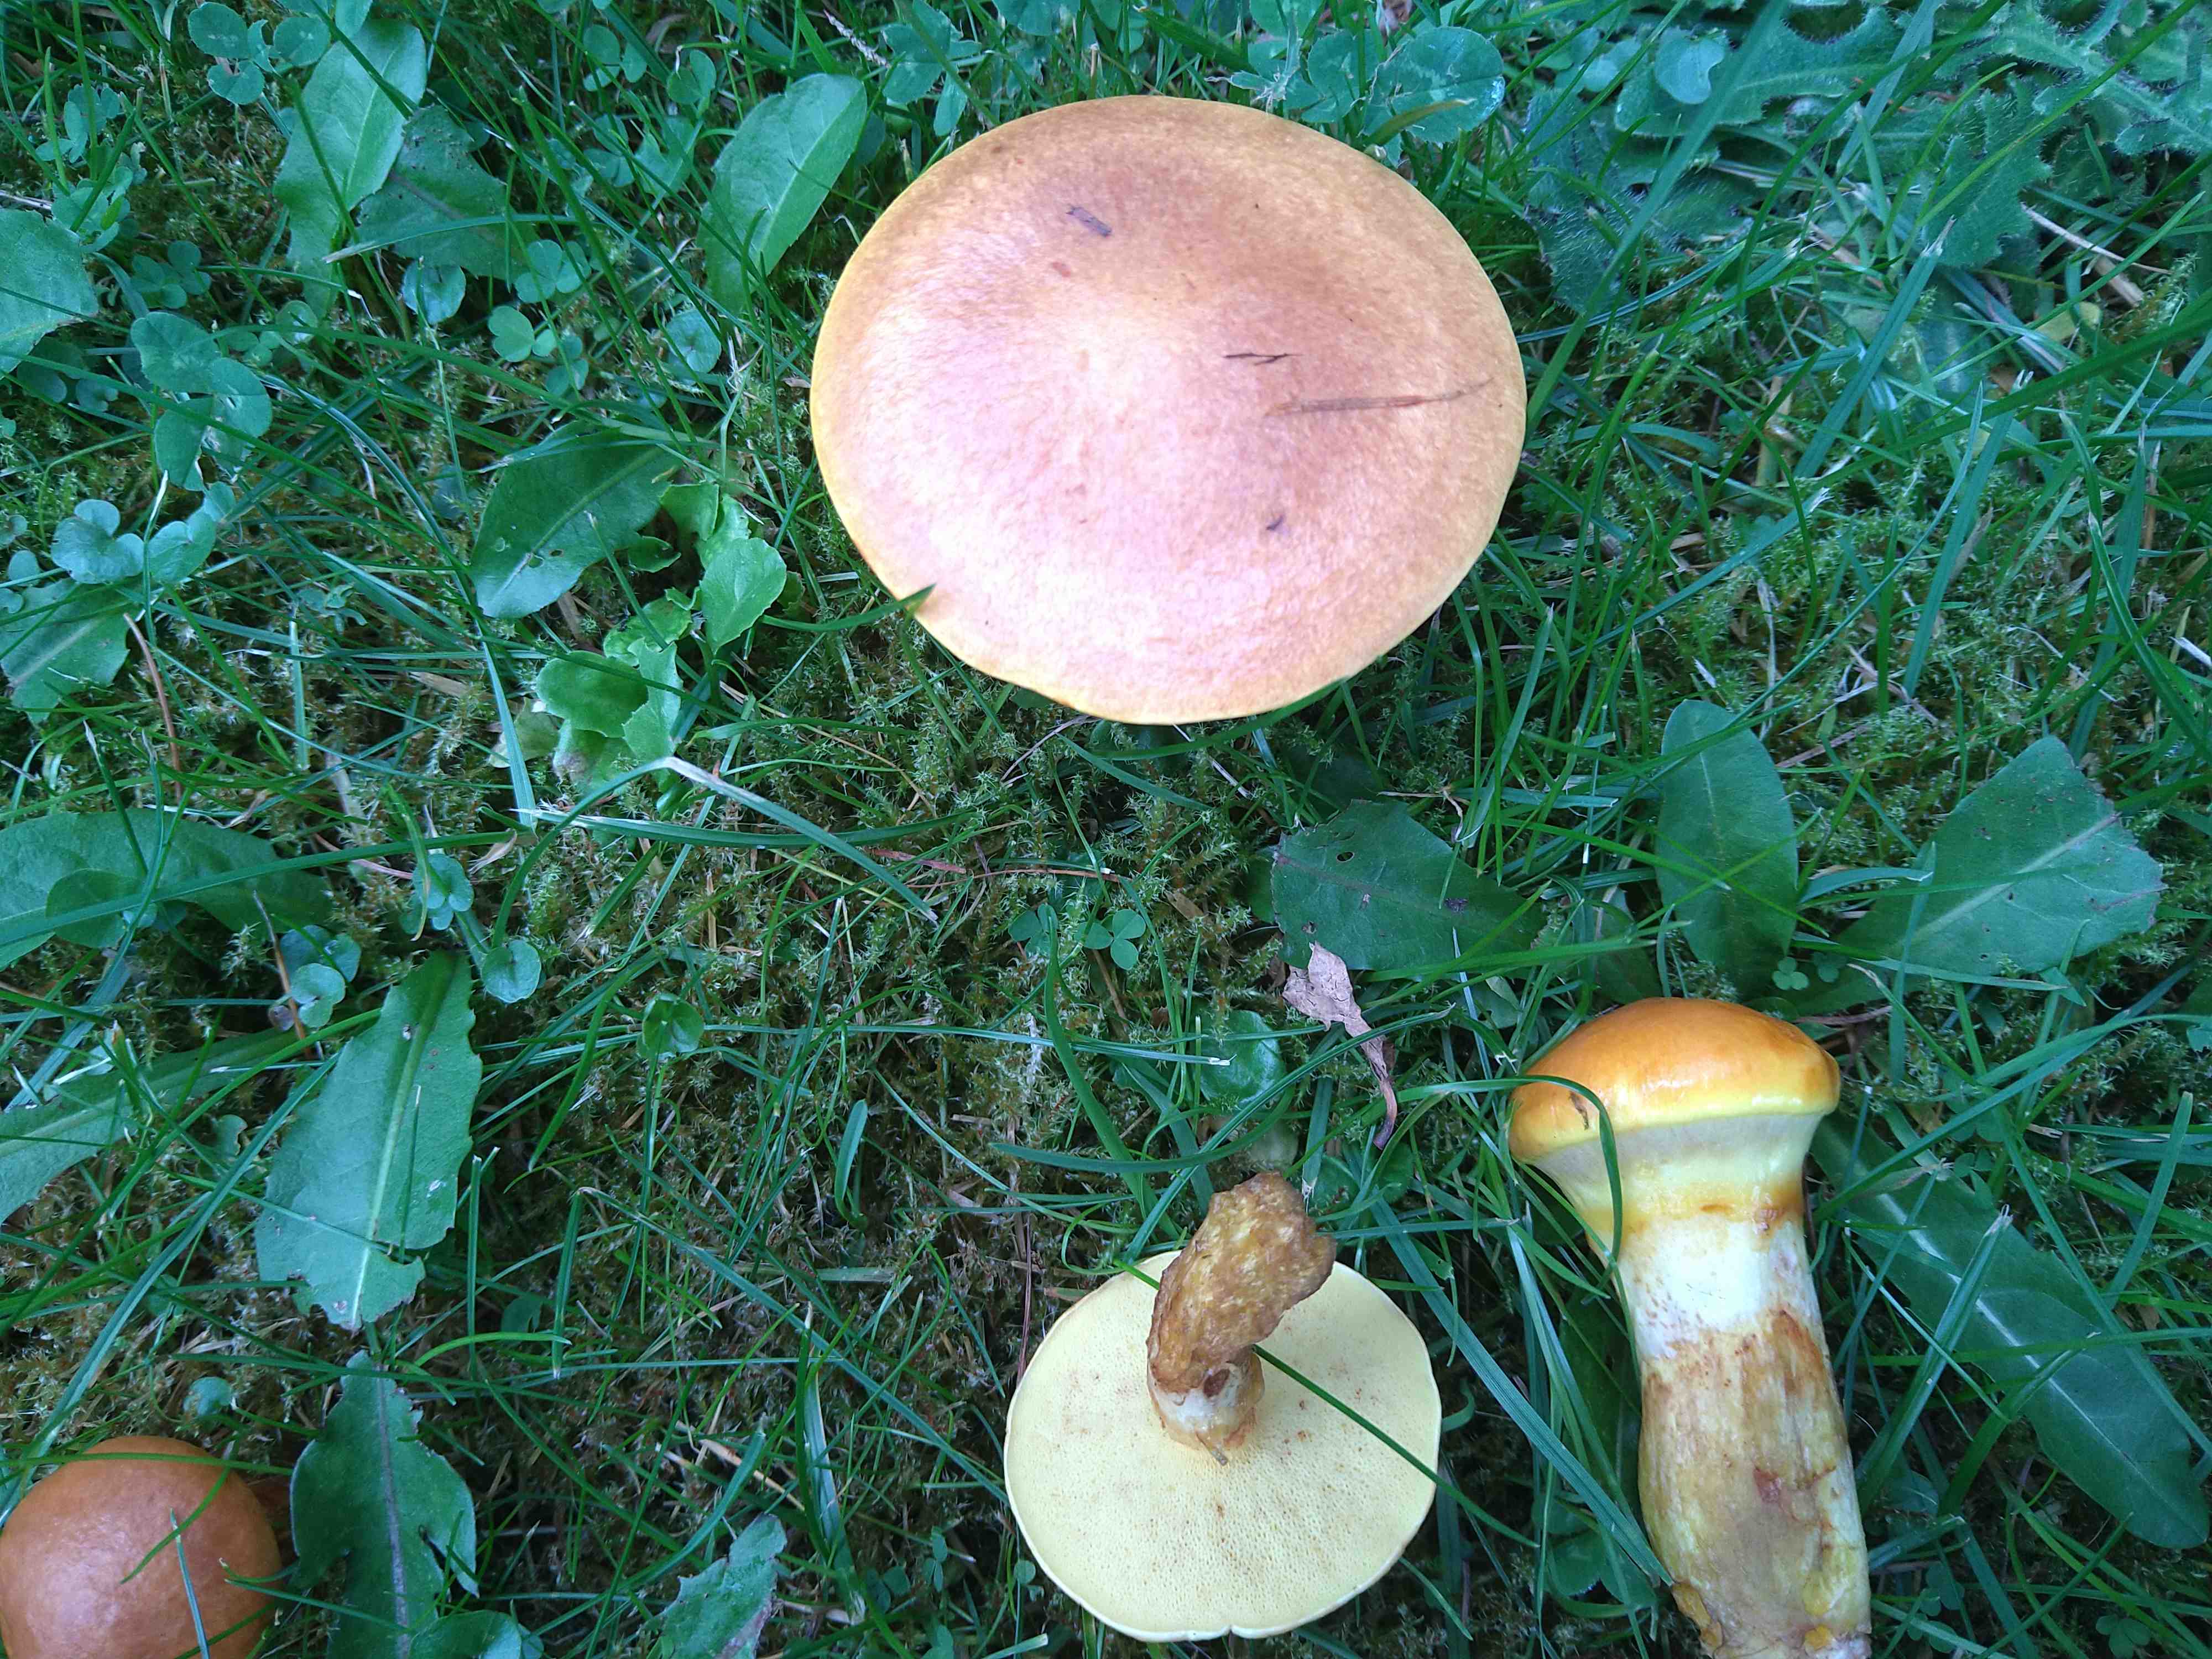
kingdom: Fungi
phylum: Basidiomycota
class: Agaricomycetes
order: Boletales
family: Suillaceae
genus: Suillus
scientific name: Suillus grevillei
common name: lærke-slimrørhat
